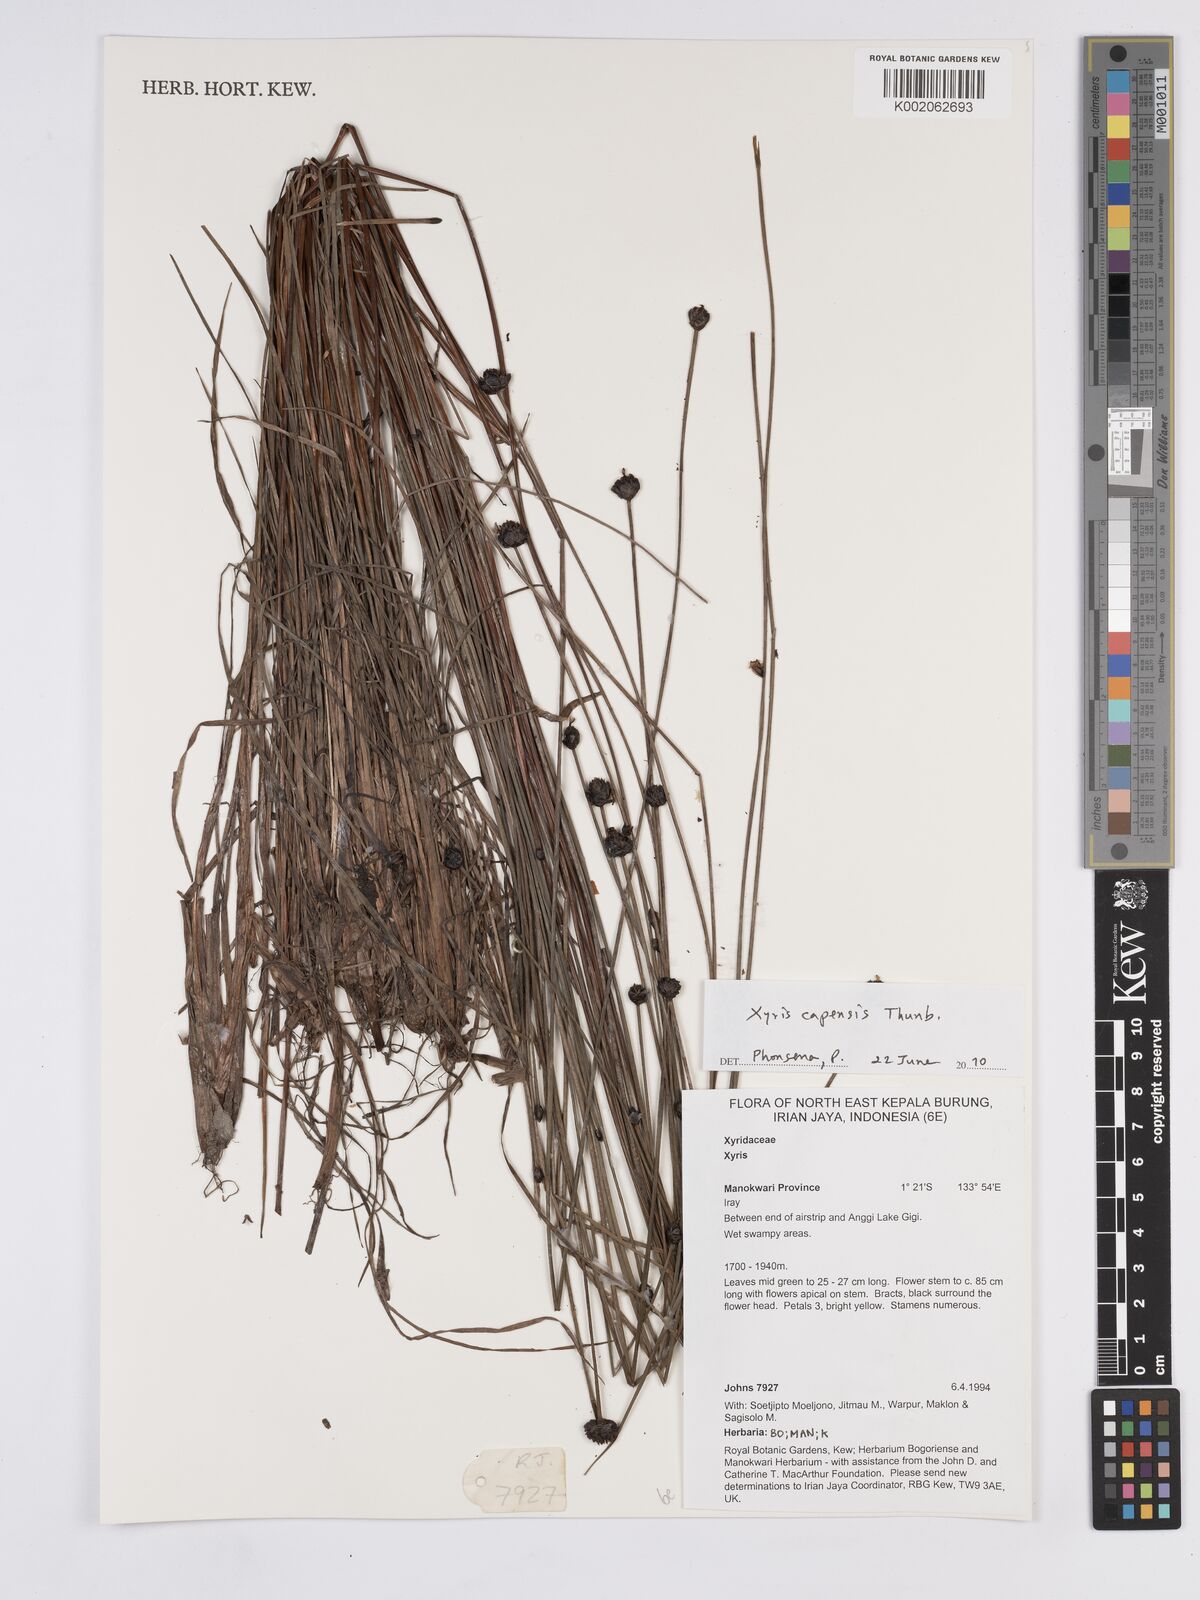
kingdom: Plantae
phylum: Tracheophyta
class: Liliopsida
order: Poales
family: Xyridaceae
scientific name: Xyridaceae
